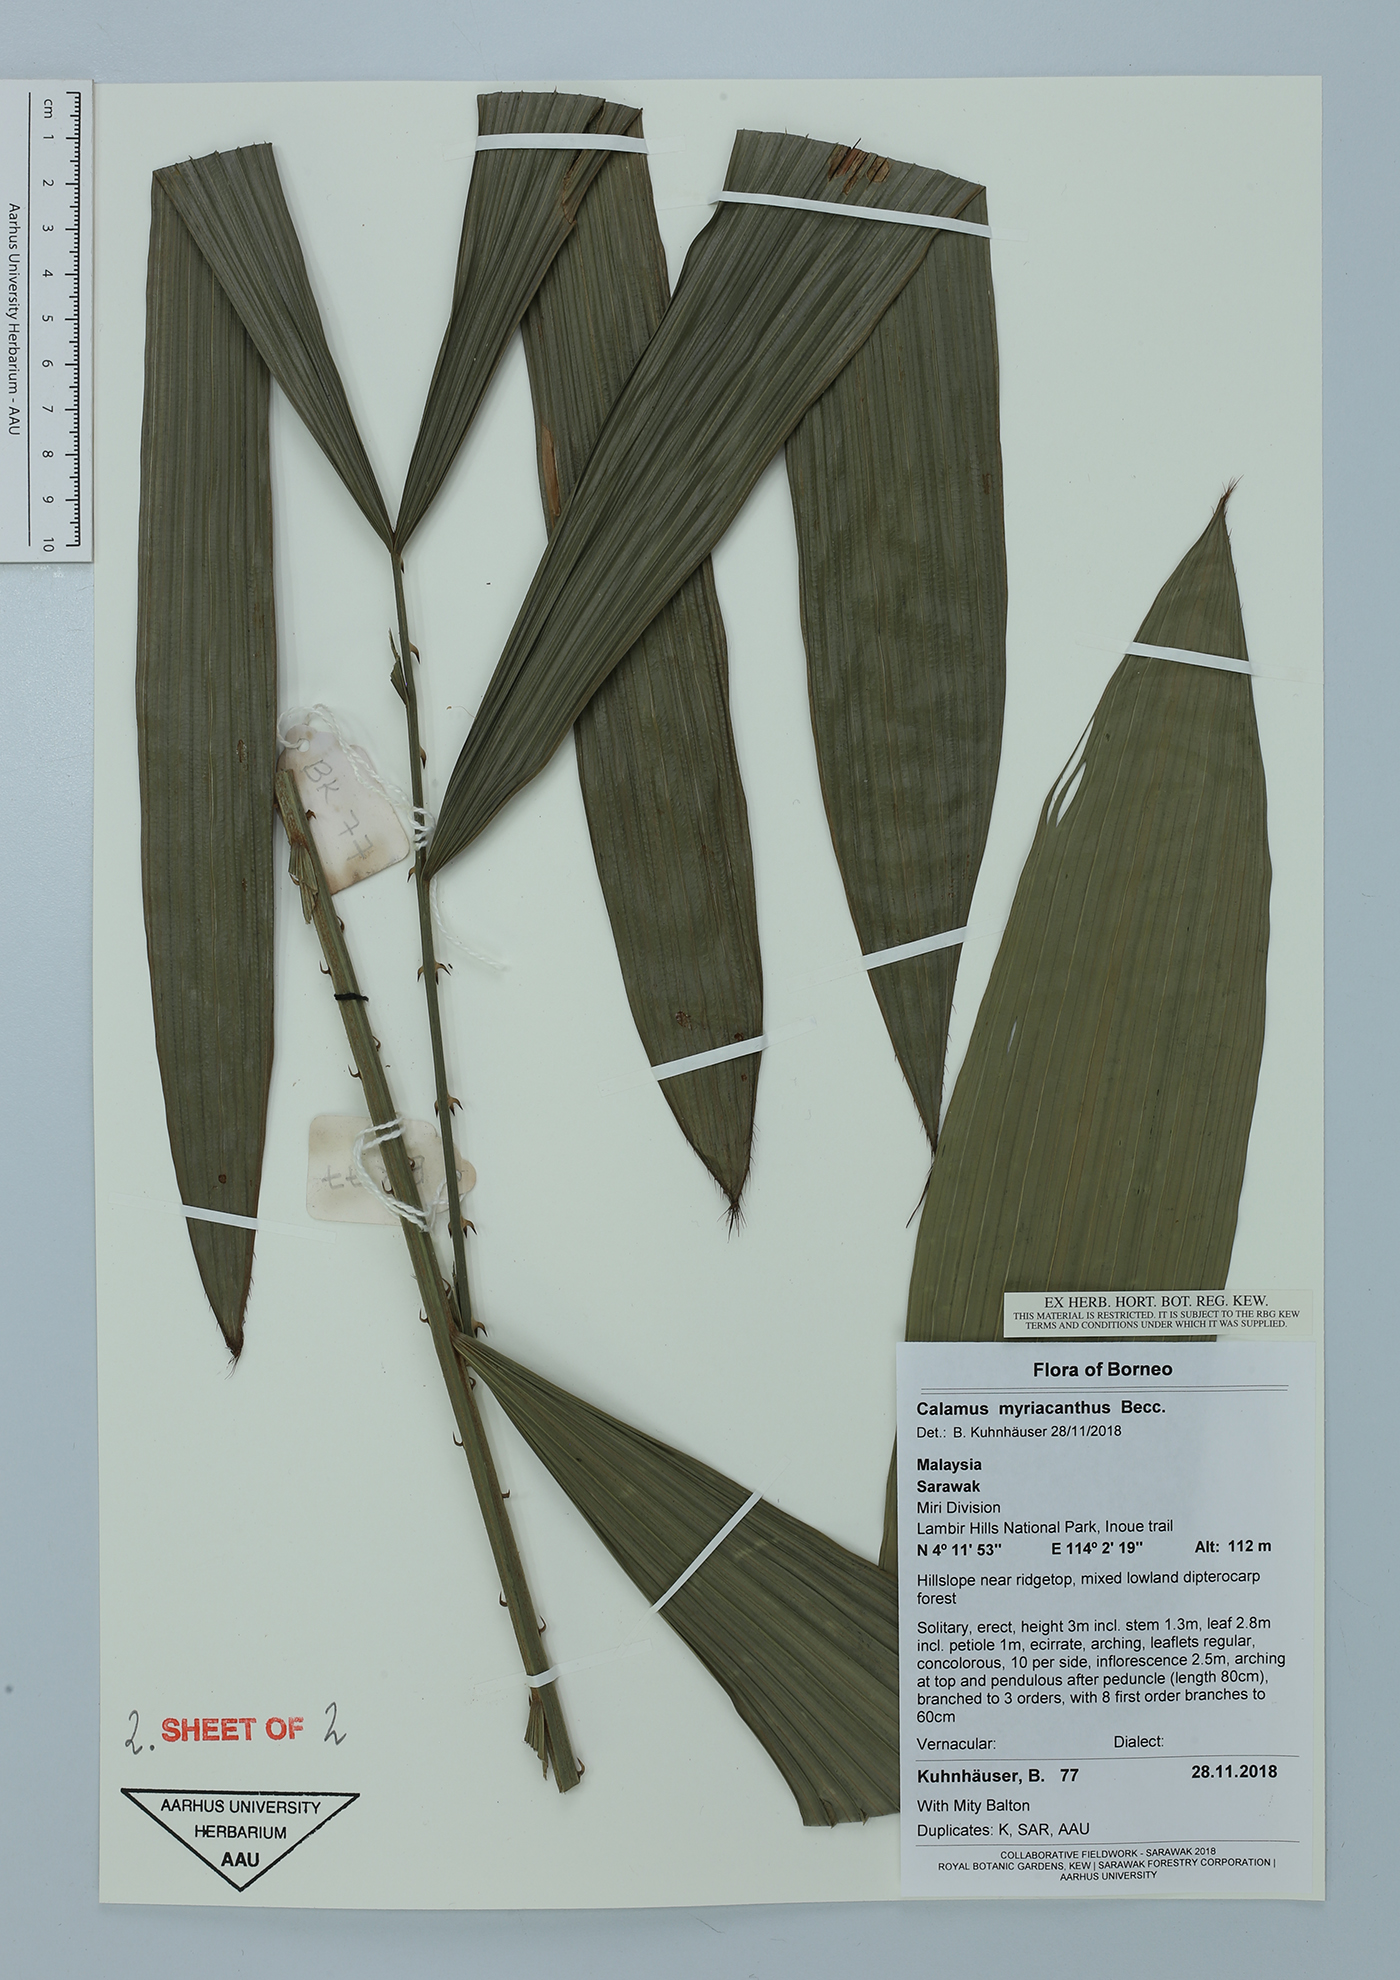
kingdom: Plantae
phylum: Tracheophyta
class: Liliopsida
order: Arecales
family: Arecaceae
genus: Calamus
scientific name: Calamus myriacanthus
